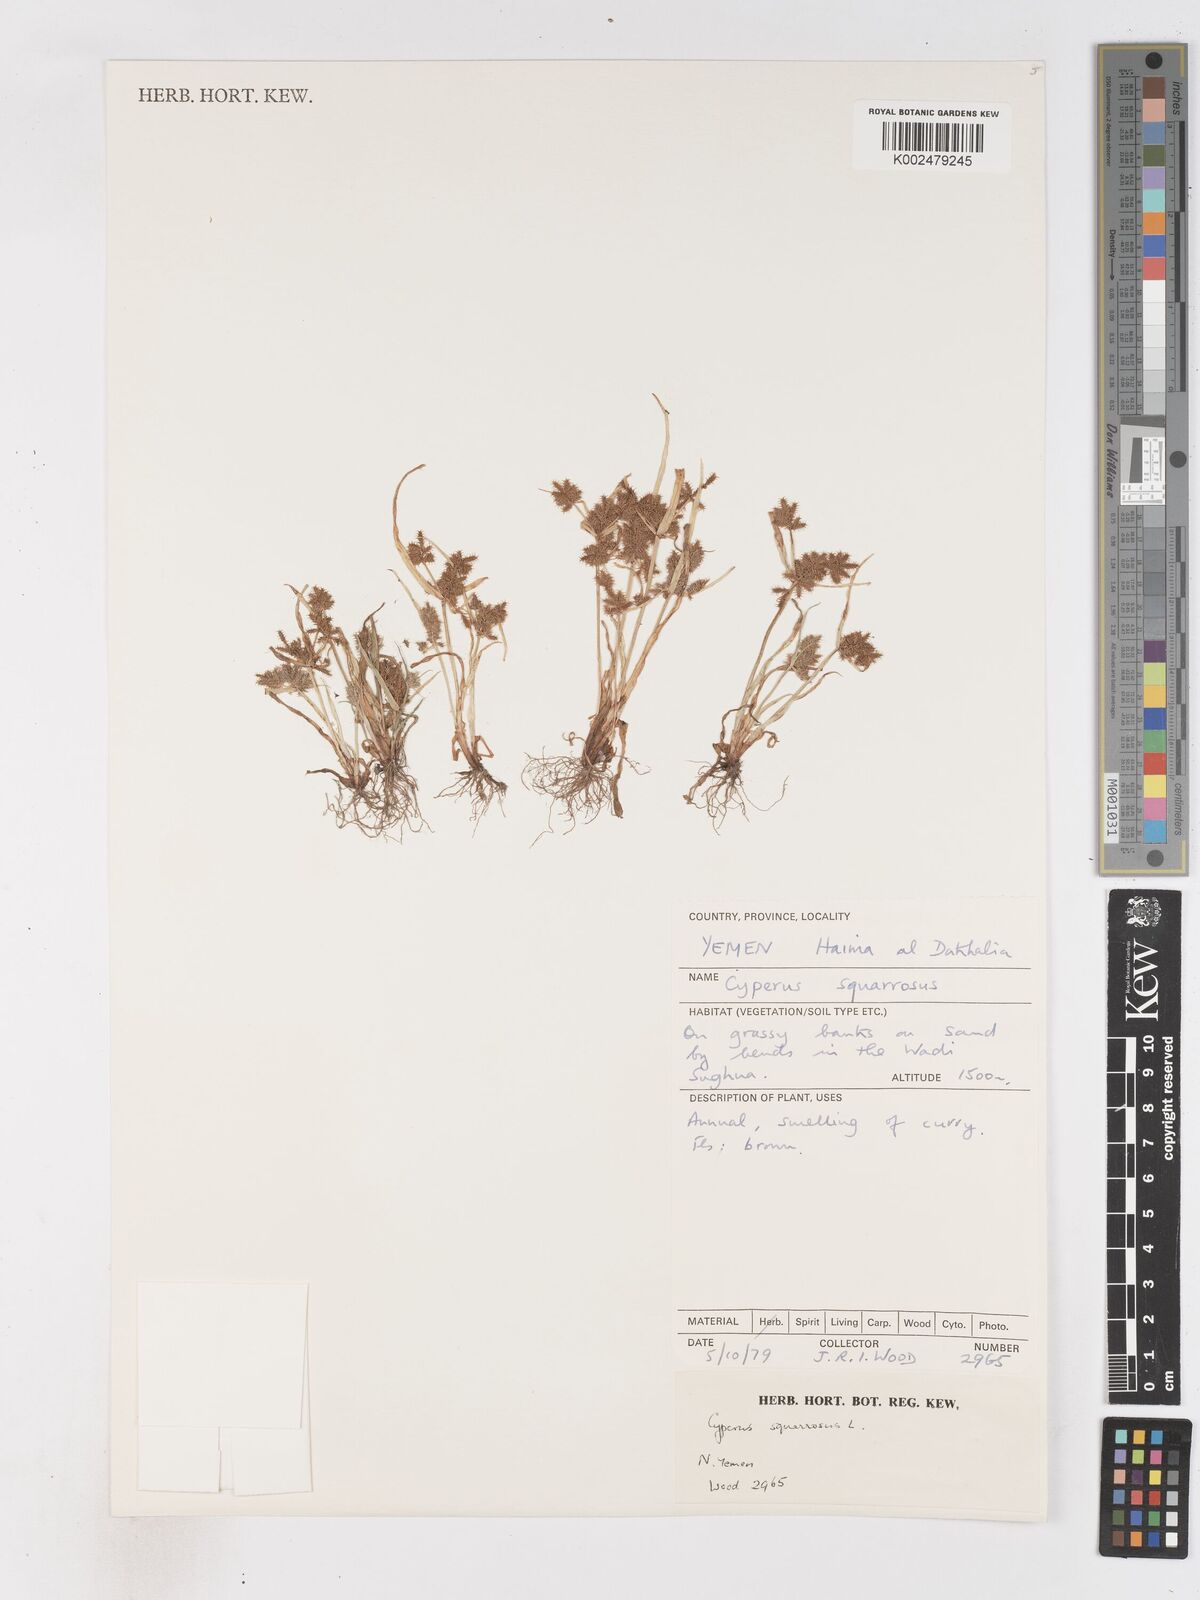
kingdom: Plantae
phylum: Tracheophyta
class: Liliopsida
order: Poales
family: Cyperaceae
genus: Cyperus
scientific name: Cyperus squarrosus
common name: Awned cyperus
